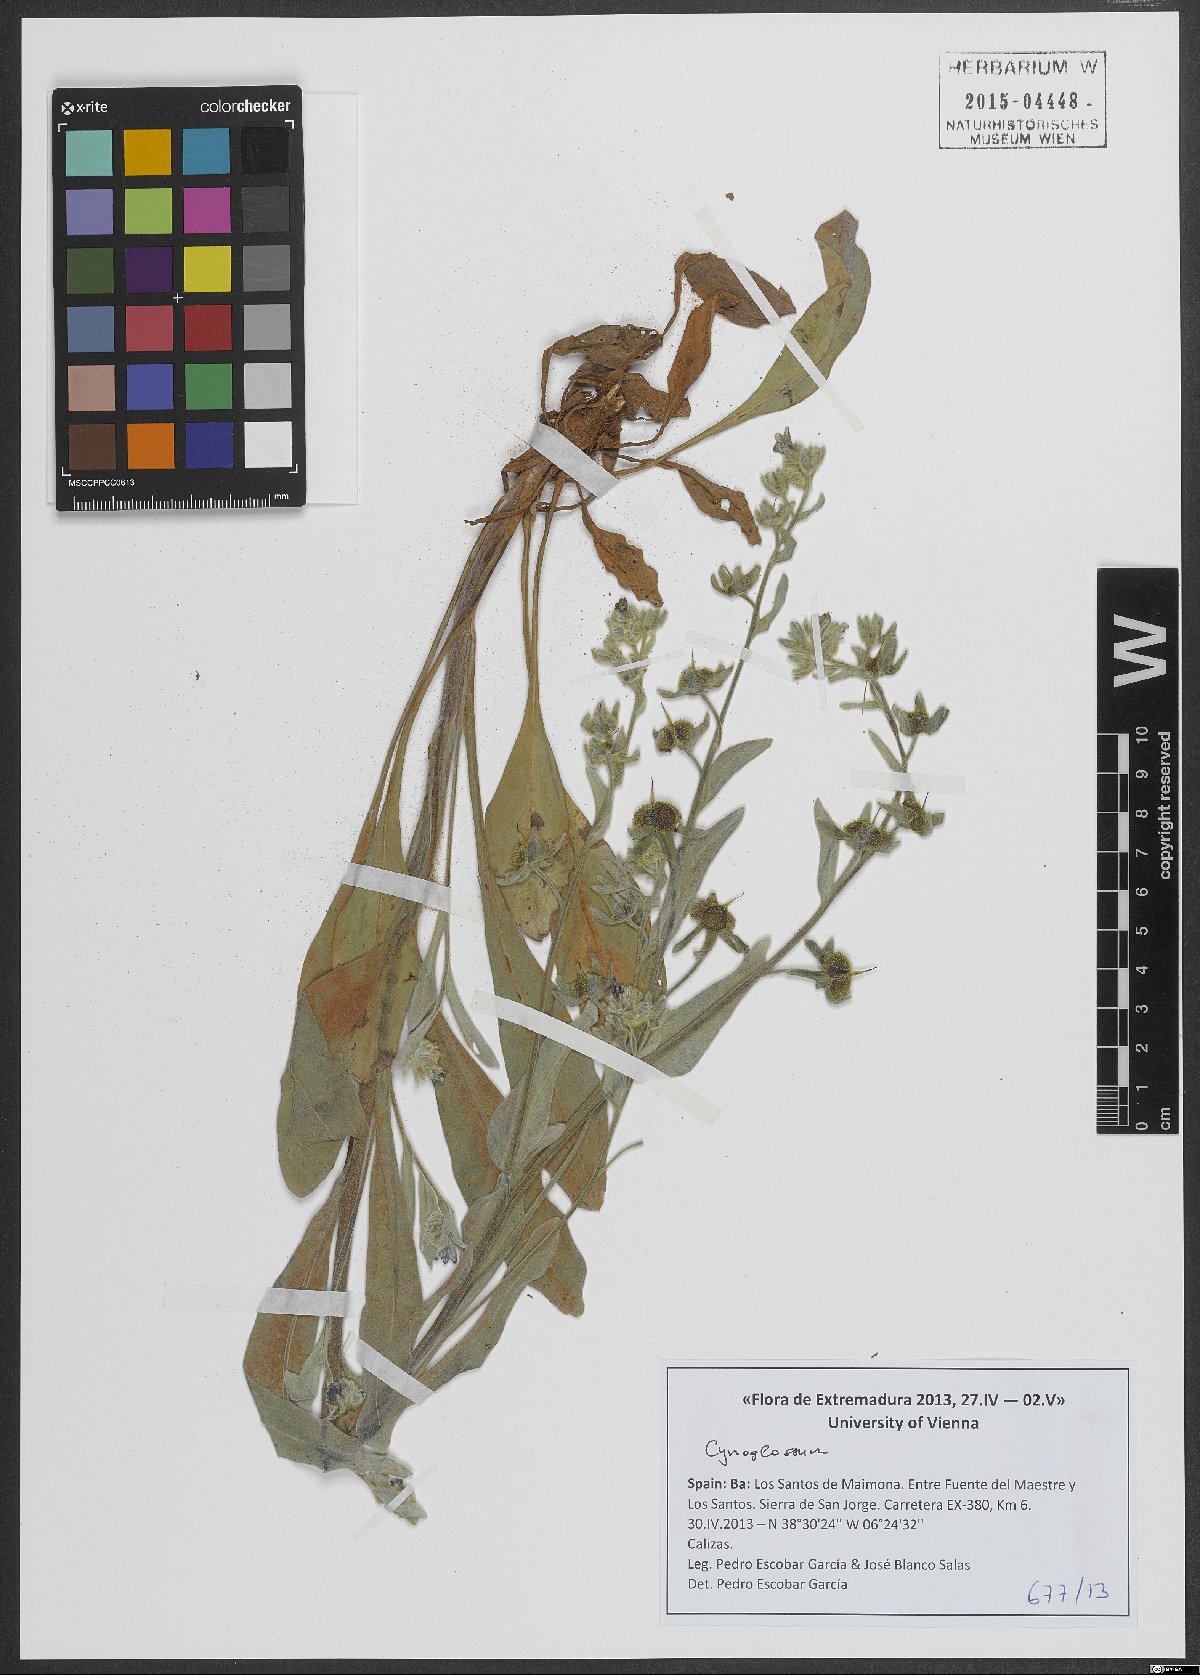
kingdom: Plantae
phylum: Tracheophyta
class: Magnoliopsida
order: Boraginales
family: Boraginaceae
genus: Cynoglossum
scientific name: Cynoglossum
